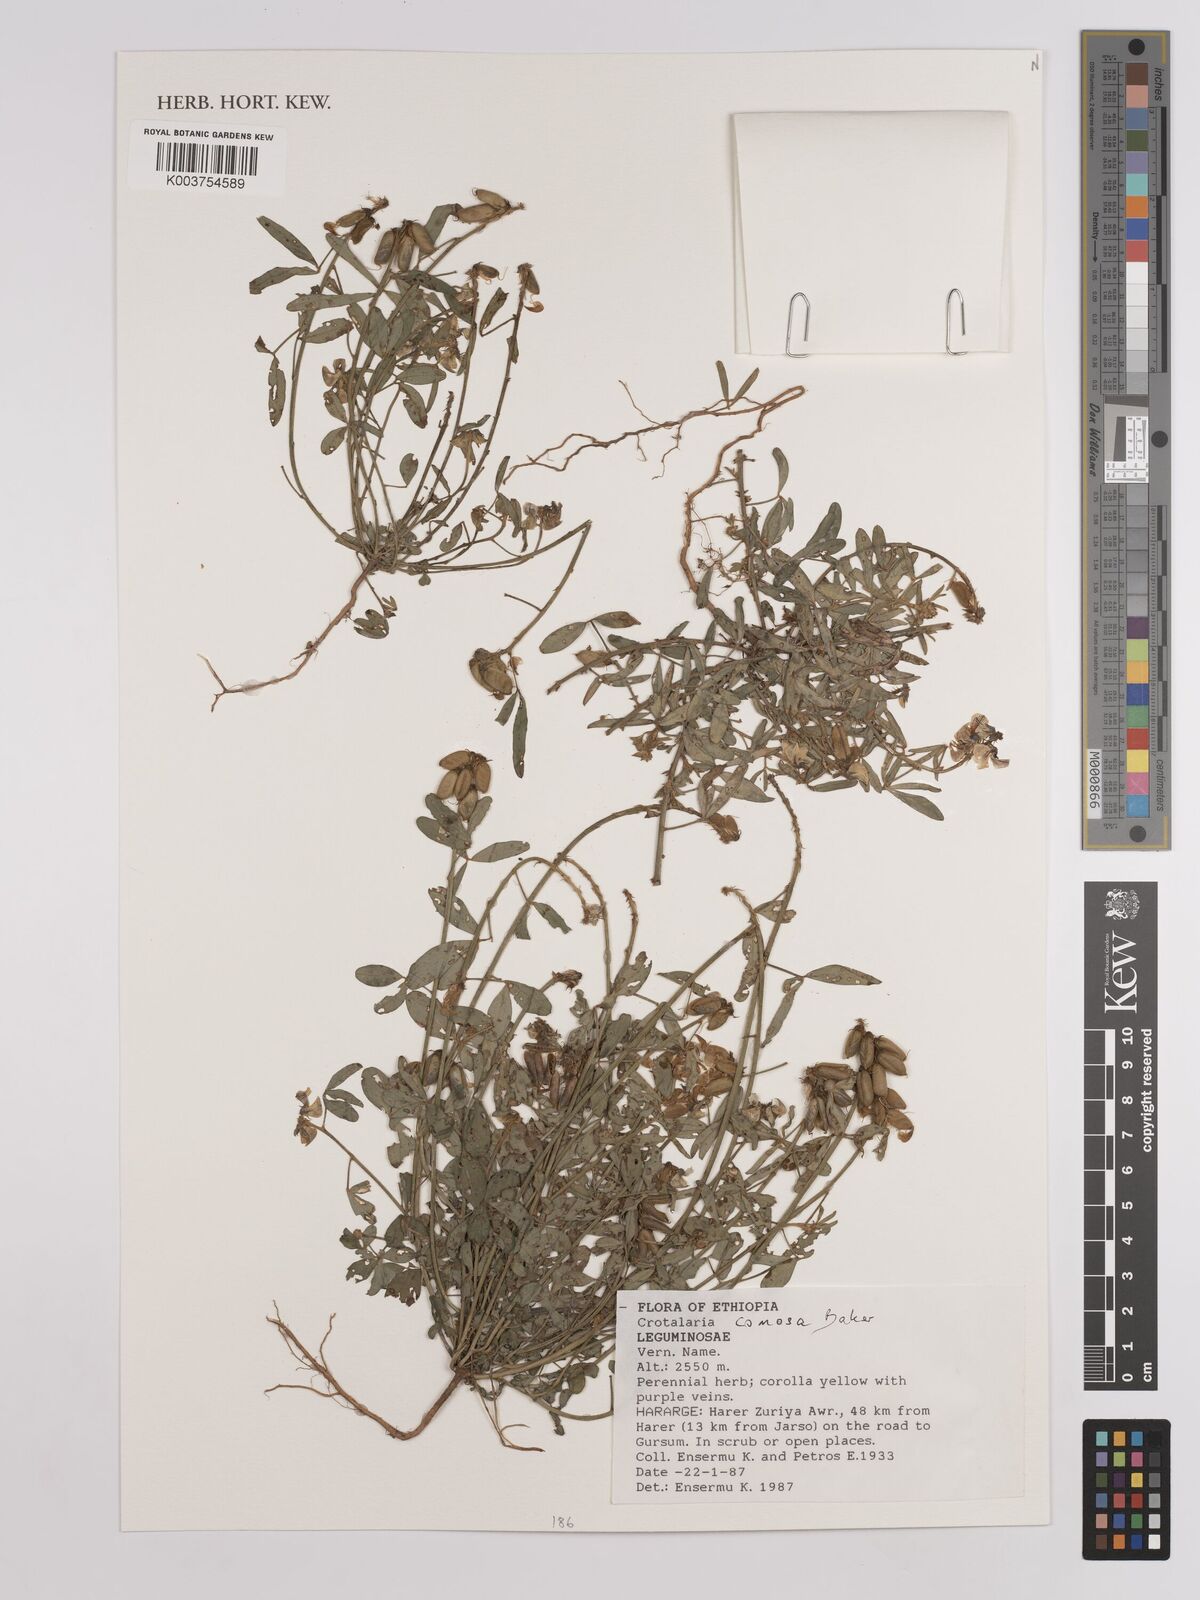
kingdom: Plantae
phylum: Tracheophyta
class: Magnoliopsida
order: Fabales
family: Fabaceae
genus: Crotalaria
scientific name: Crotalaria comosa
